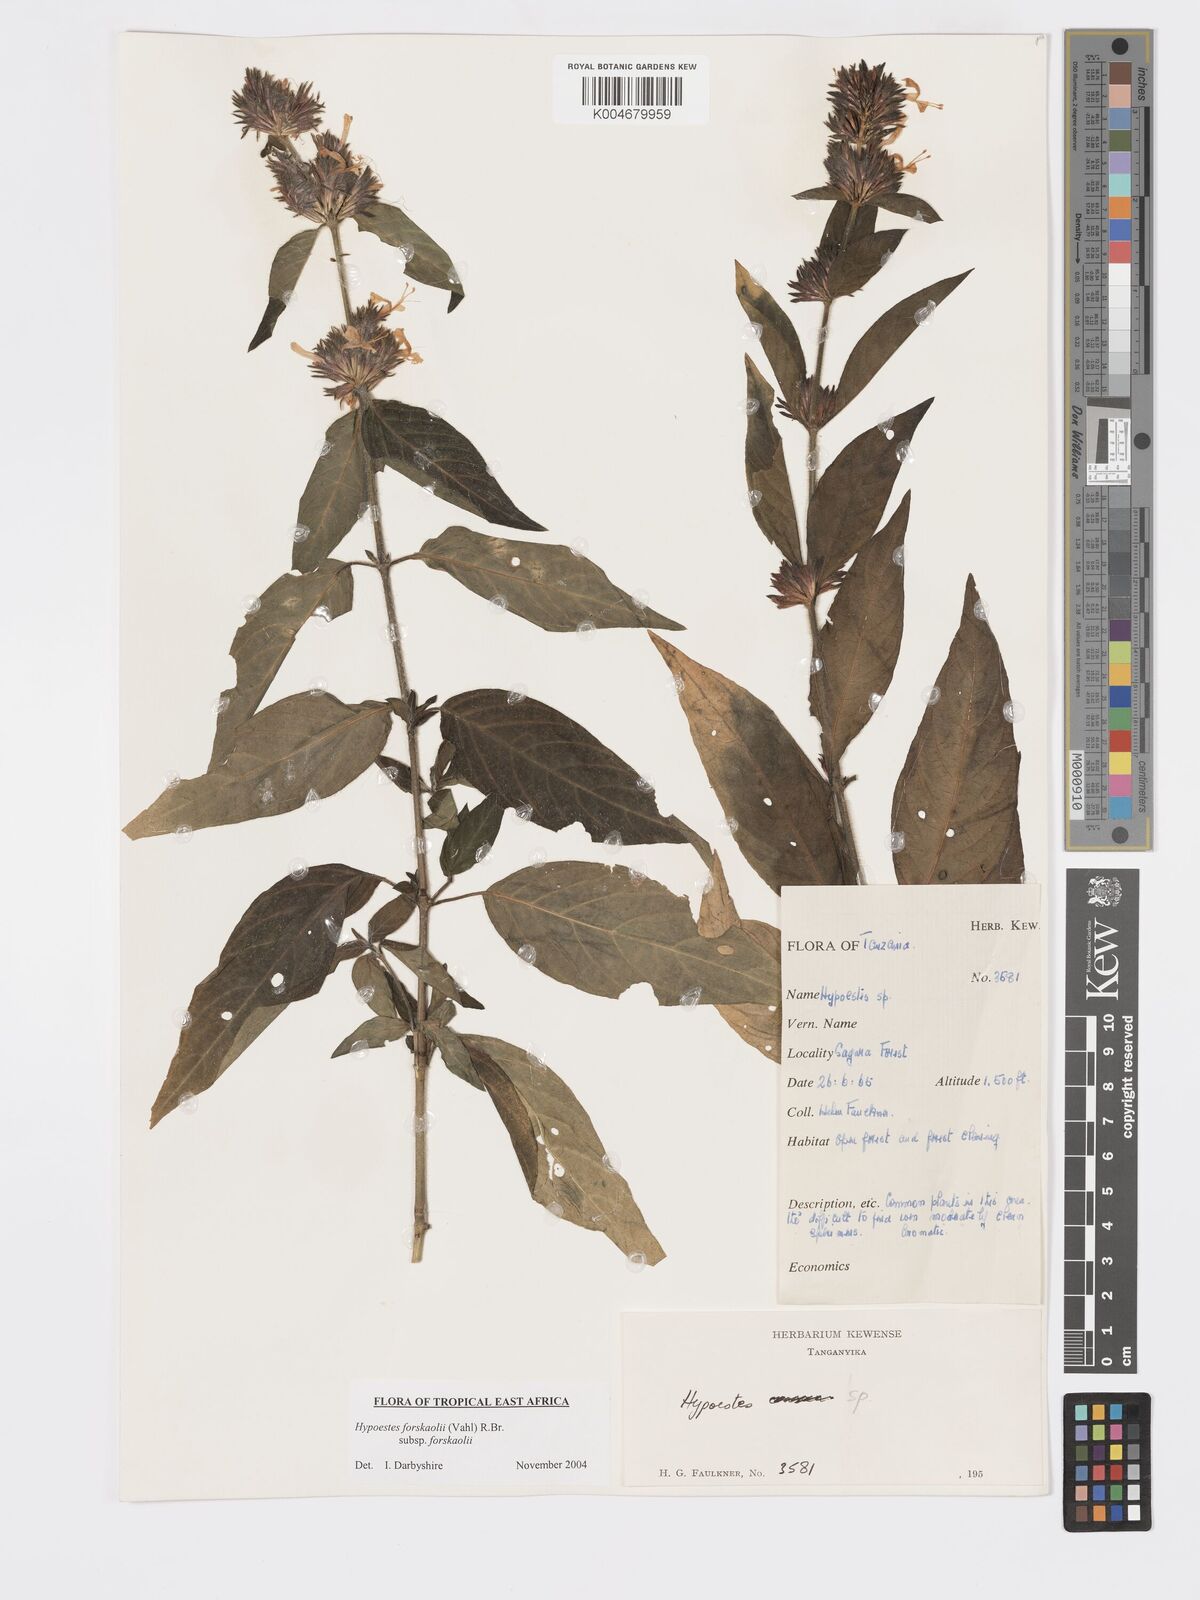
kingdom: Plantae
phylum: Tracheophyta
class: Magnoliopsida
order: Lamiales
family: Acanthaceae
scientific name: Acanthaceae
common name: Acanthaceae
